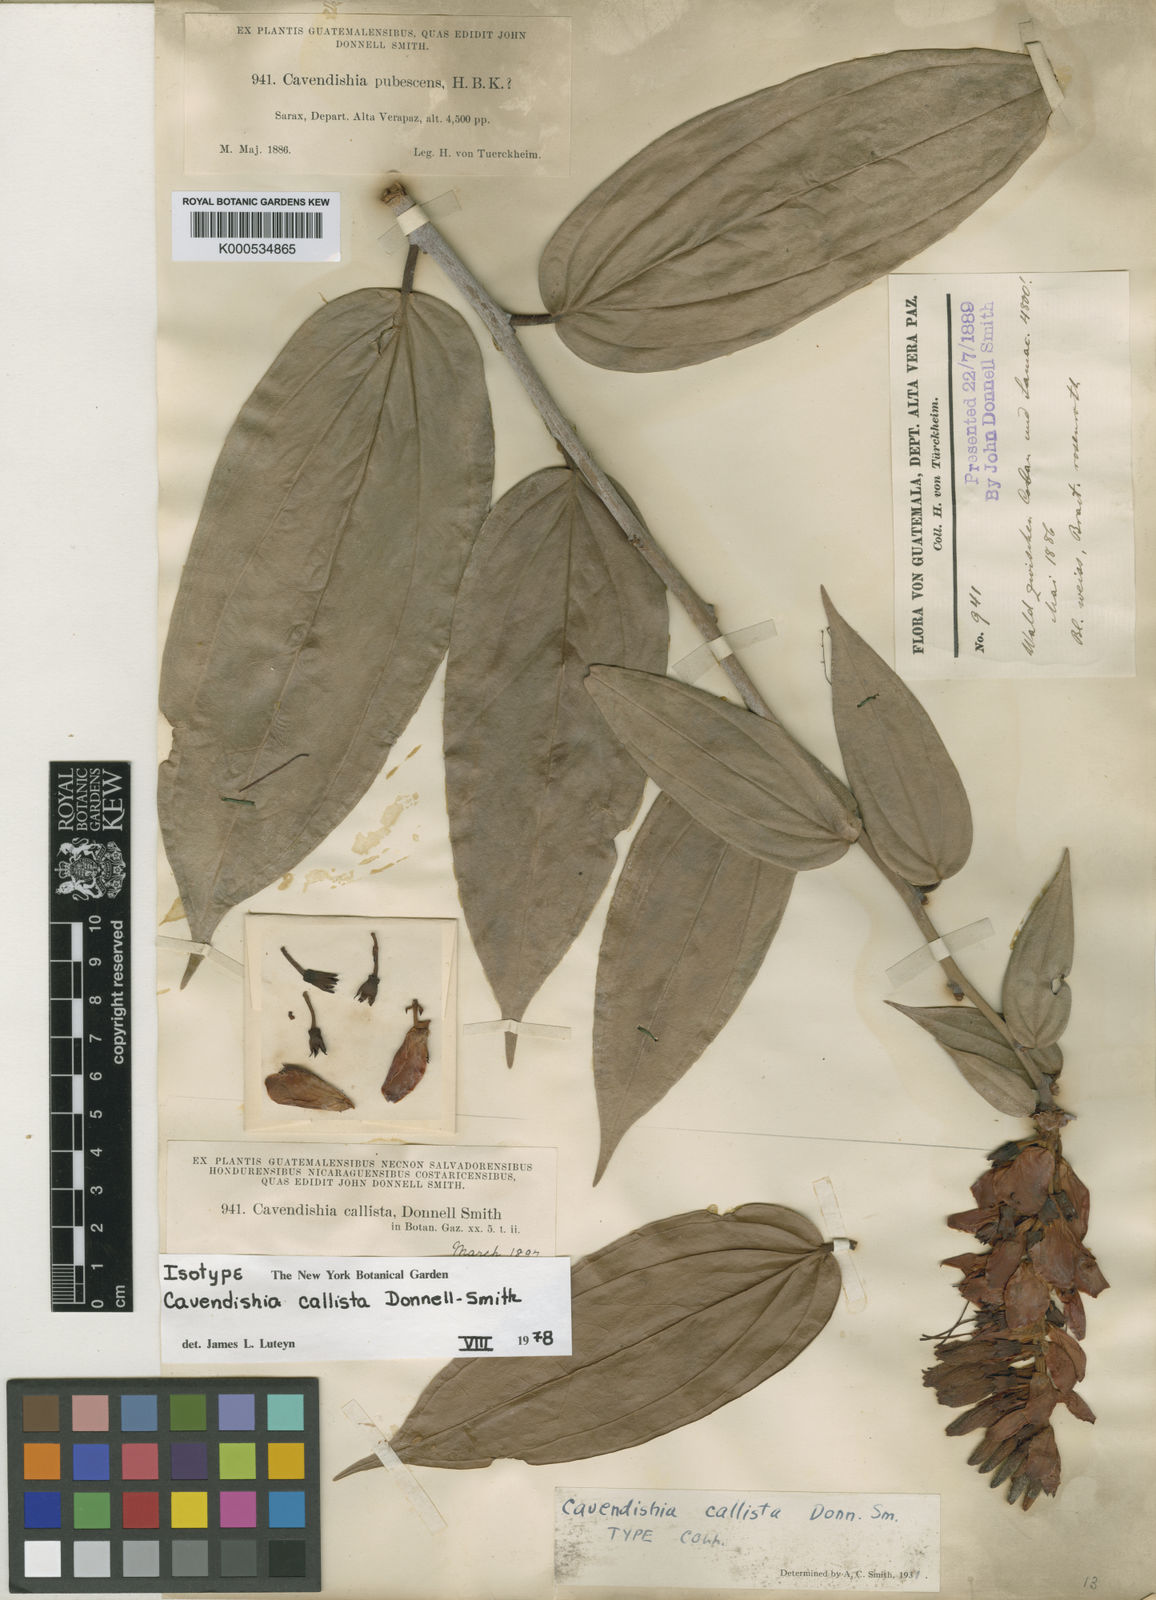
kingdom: Plantae
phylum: Tracheophyta
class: Magnoliopsida
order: Ericales
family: Ericaceae
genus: Cavendishia
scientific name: Cavendishia callista
